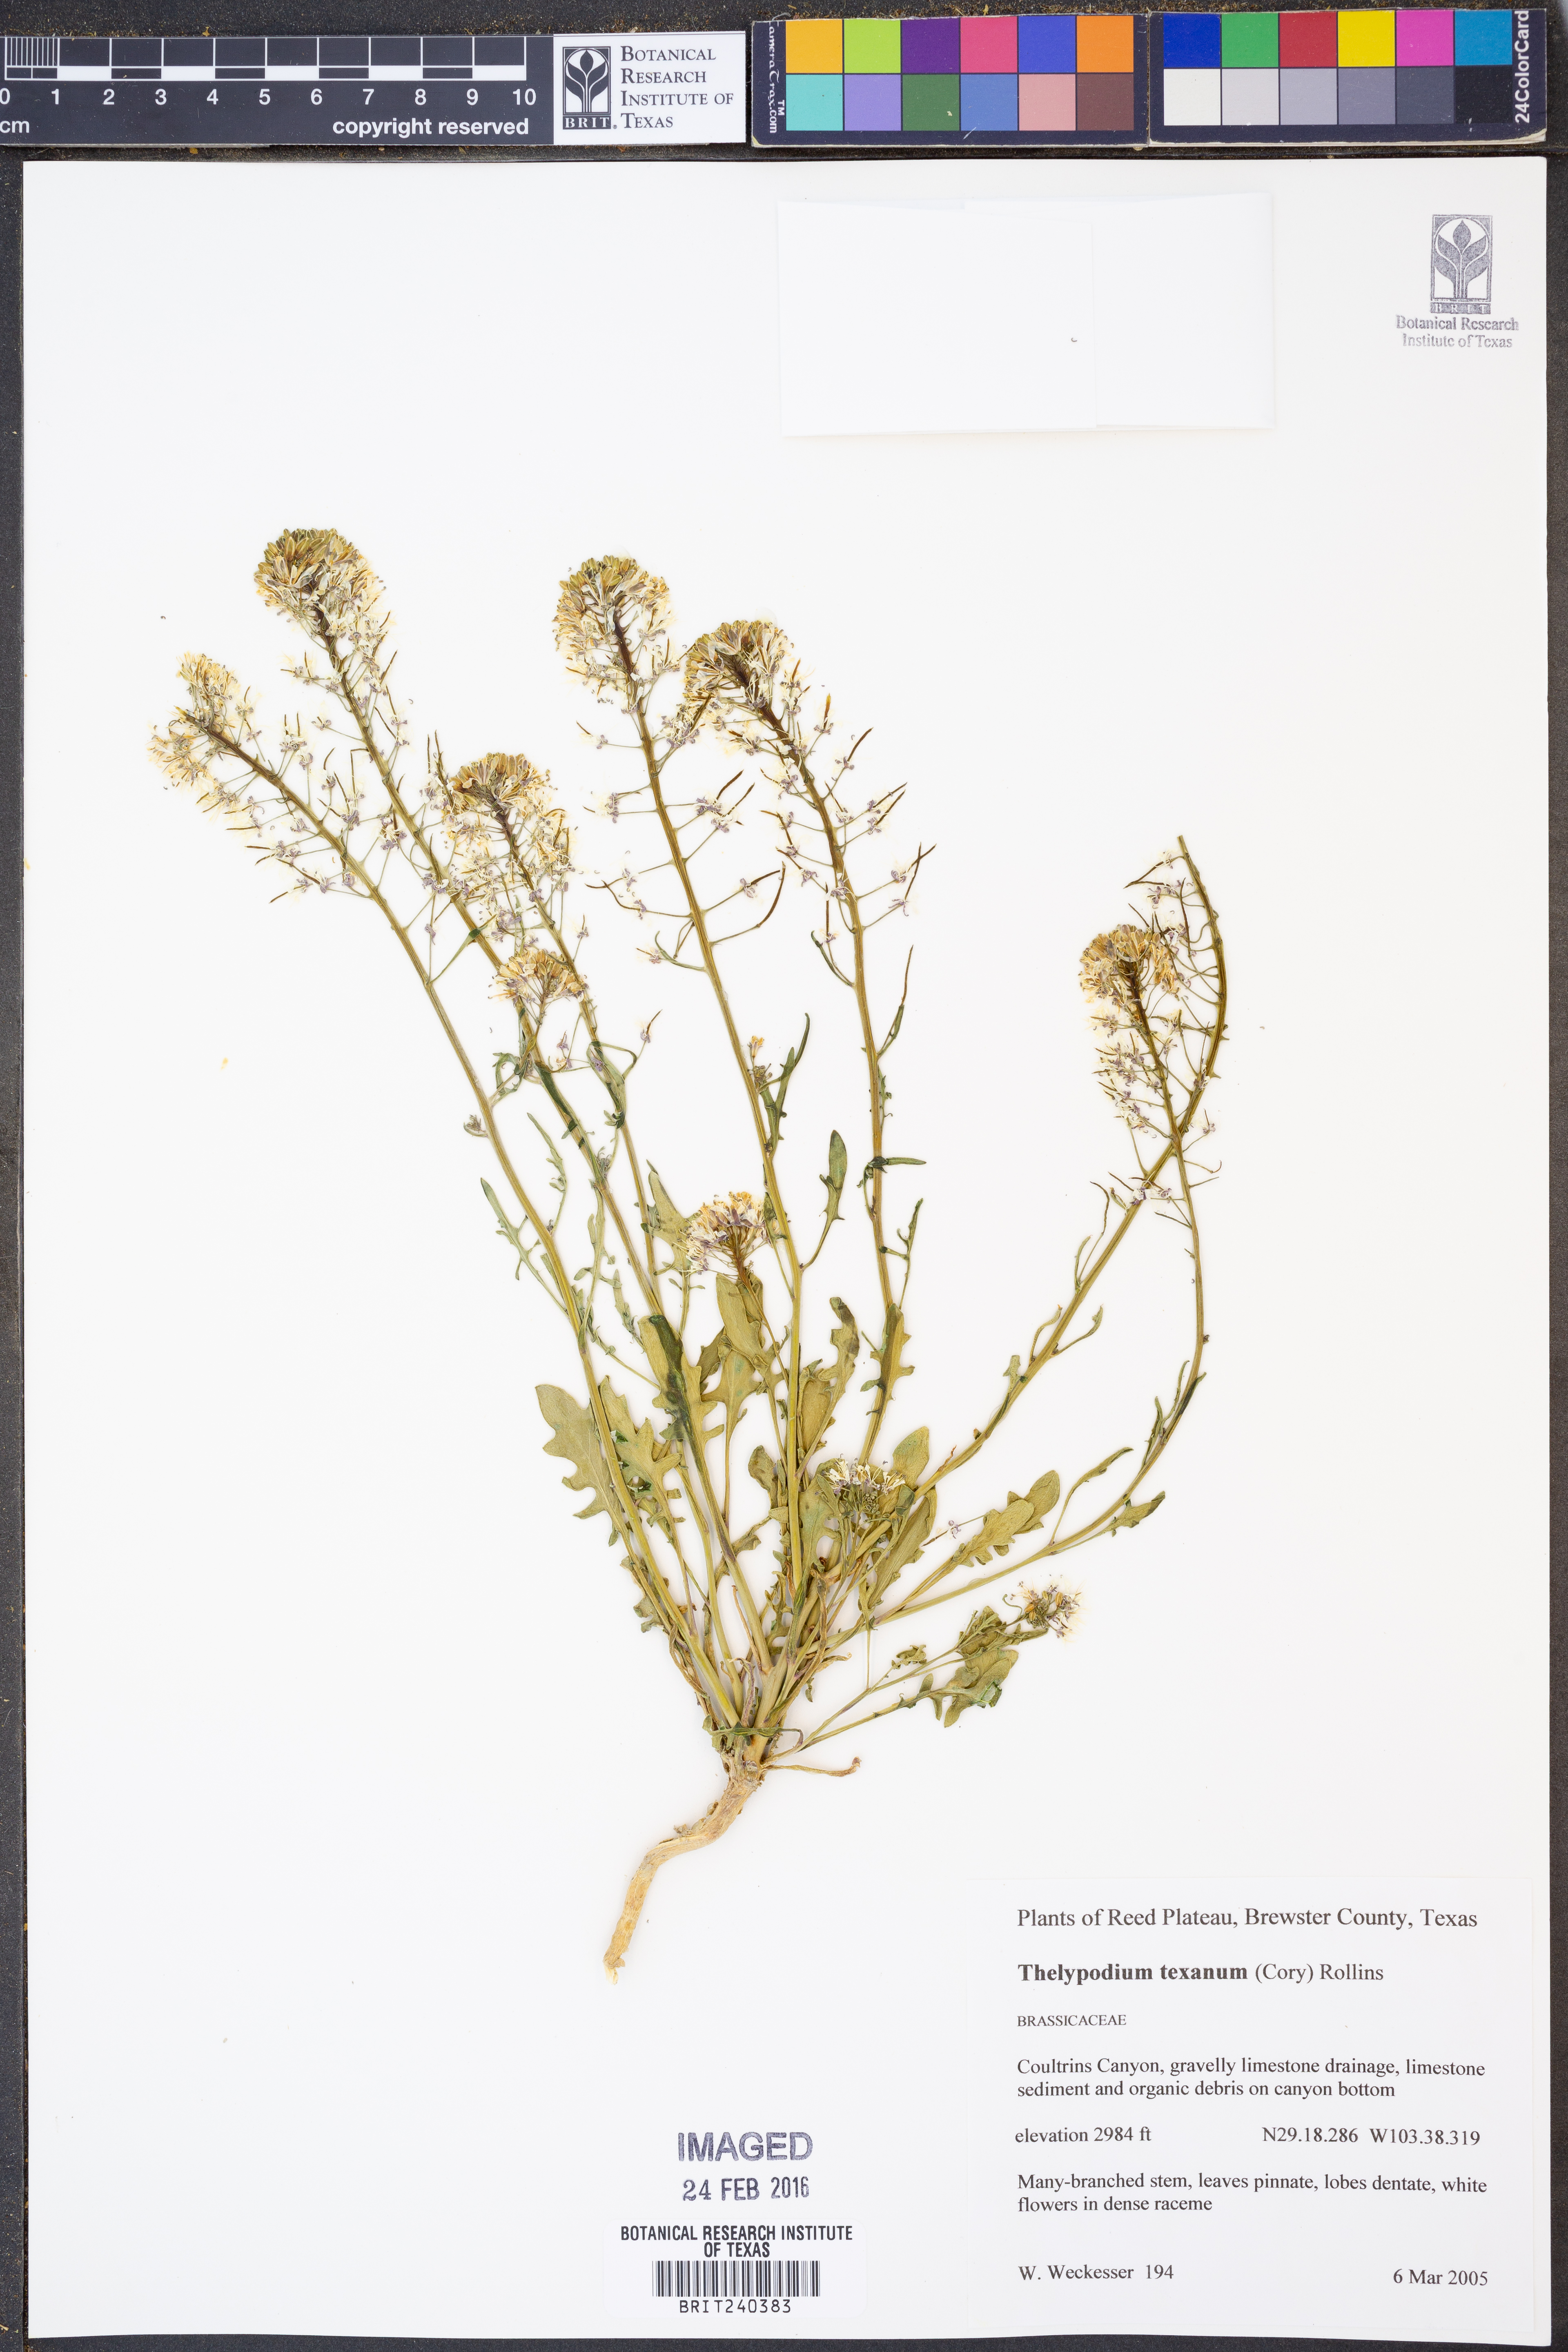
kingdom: Plantae
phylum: Tracheophyta
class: Magnoliopsida
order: Brassicales
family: Brassicaceae
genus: Thelypodium
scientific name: Thelypodium texanum
